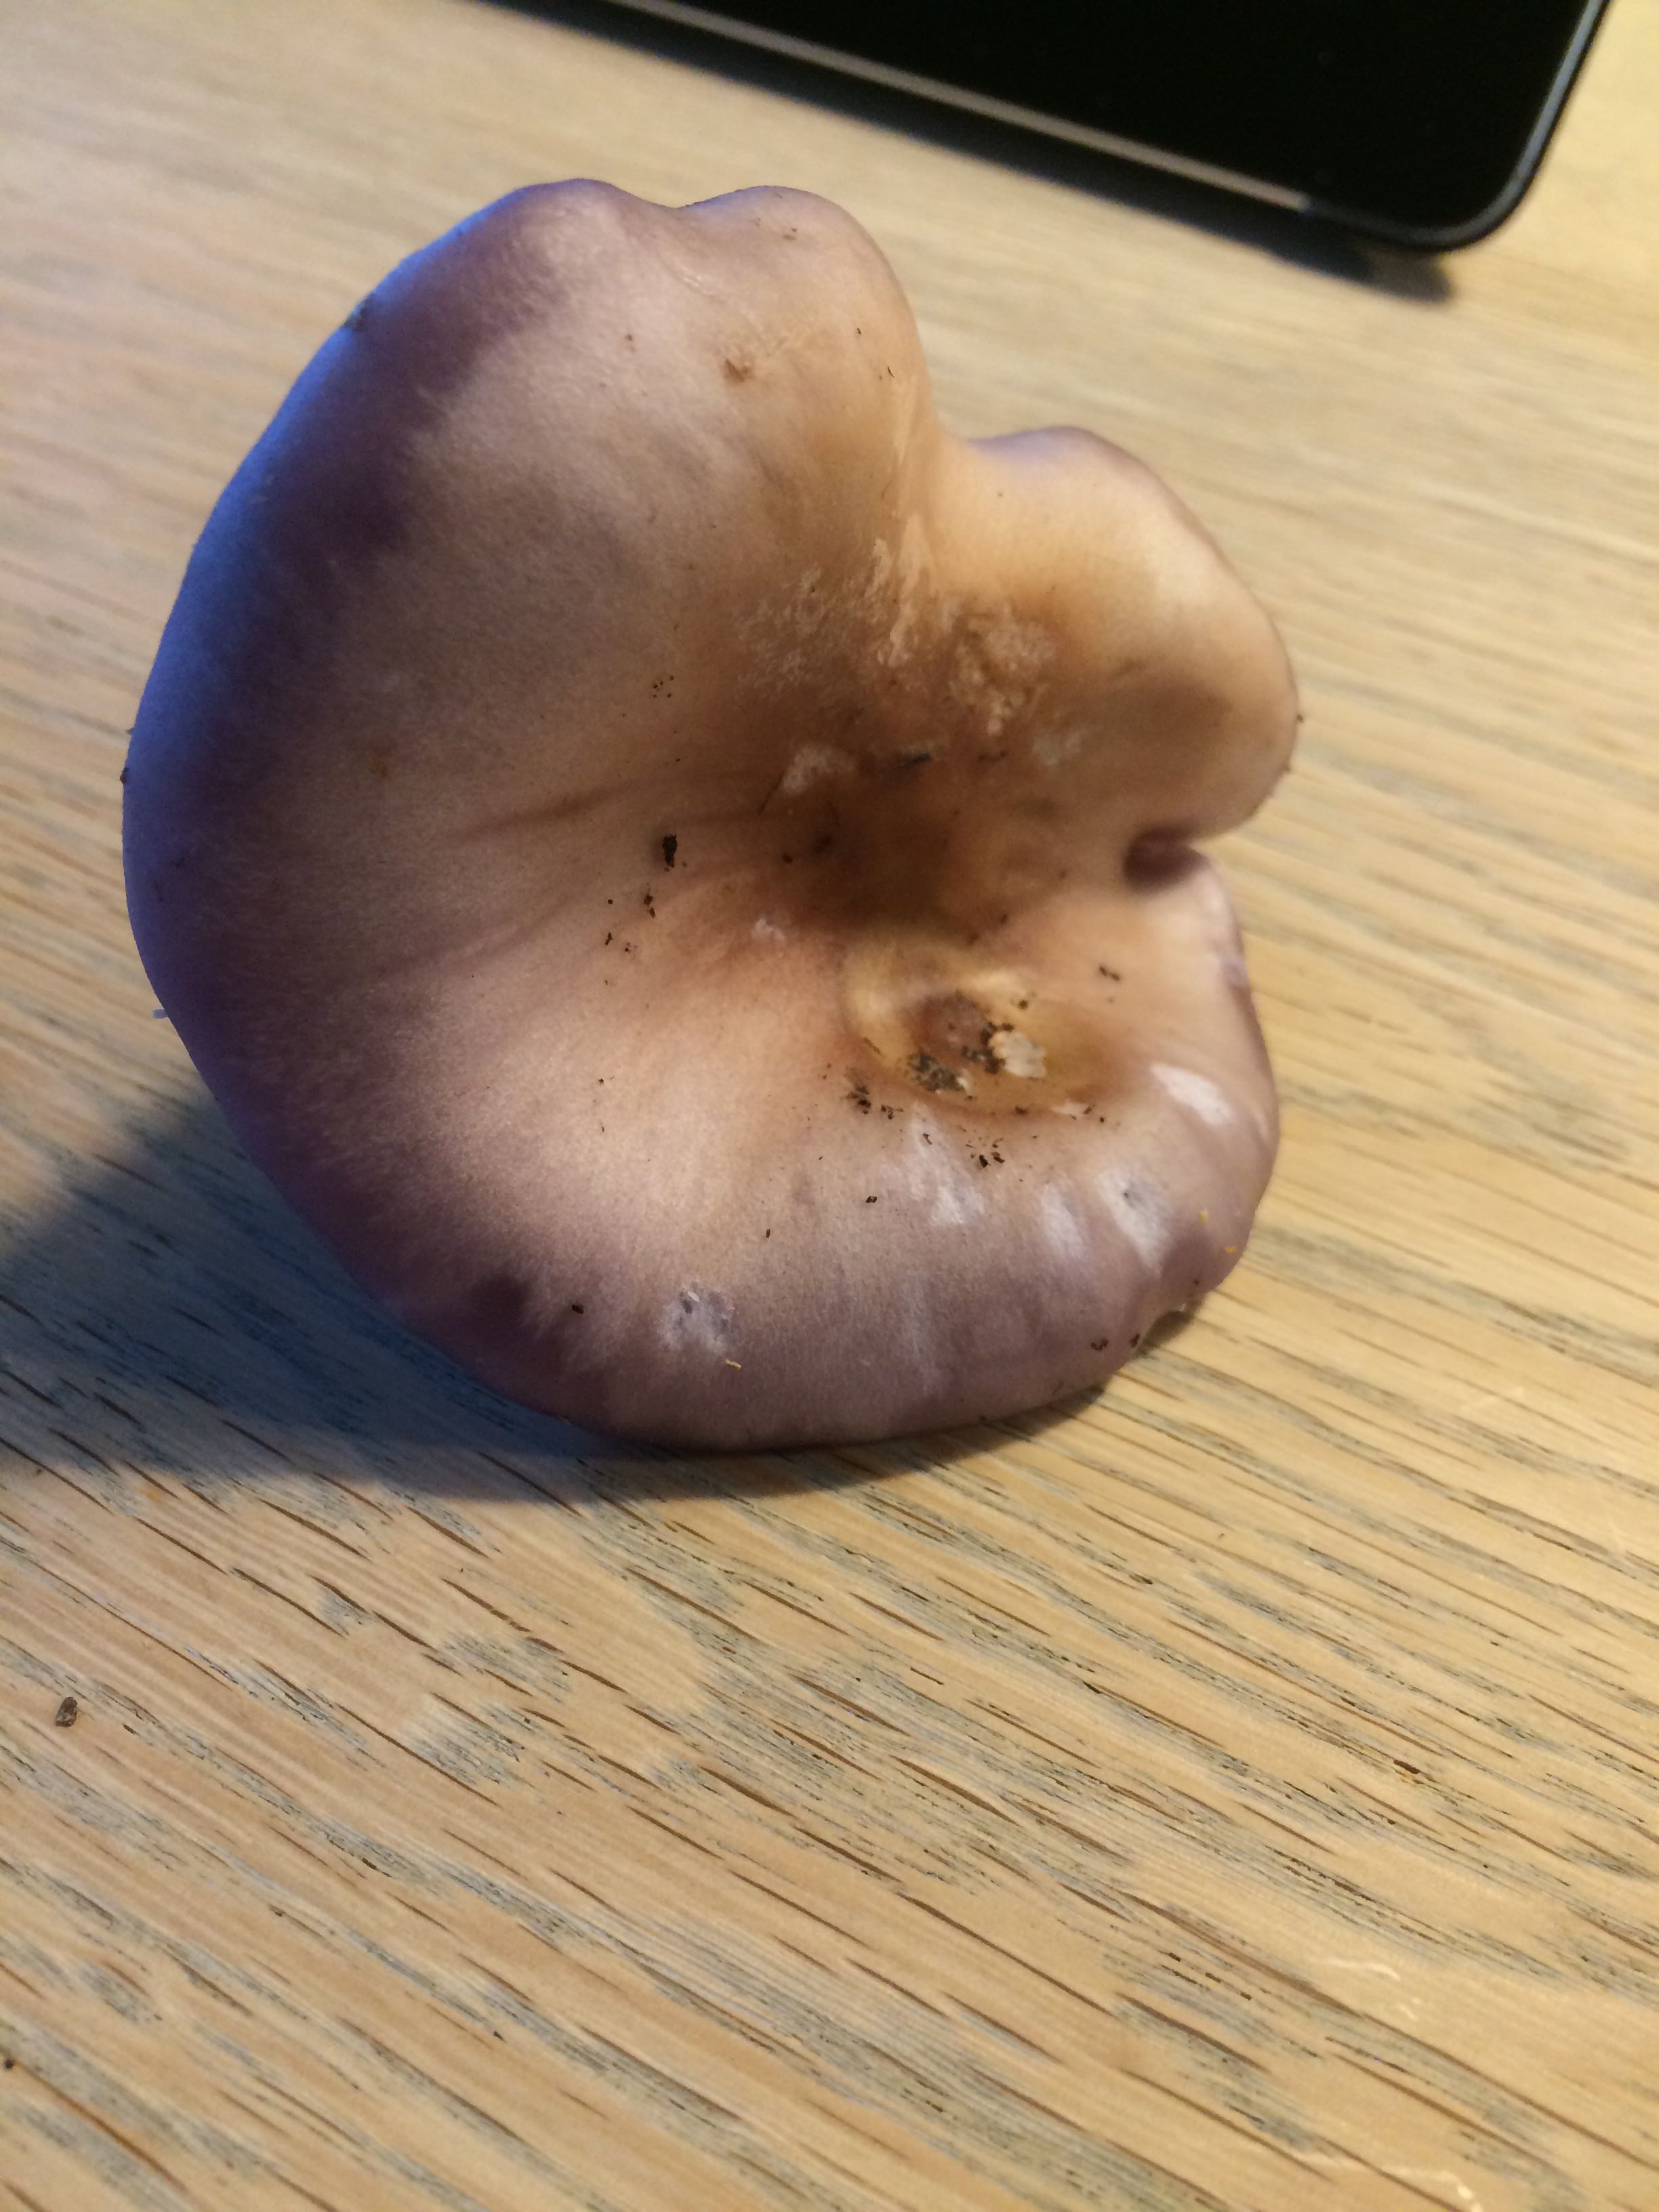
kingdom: Fungi
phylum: Basidiomycota
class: Agaricomycetes
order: Agaricales
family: Tricholomataceae
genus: Lepista
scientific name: Lepista nuda
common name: violet hekseringshat
